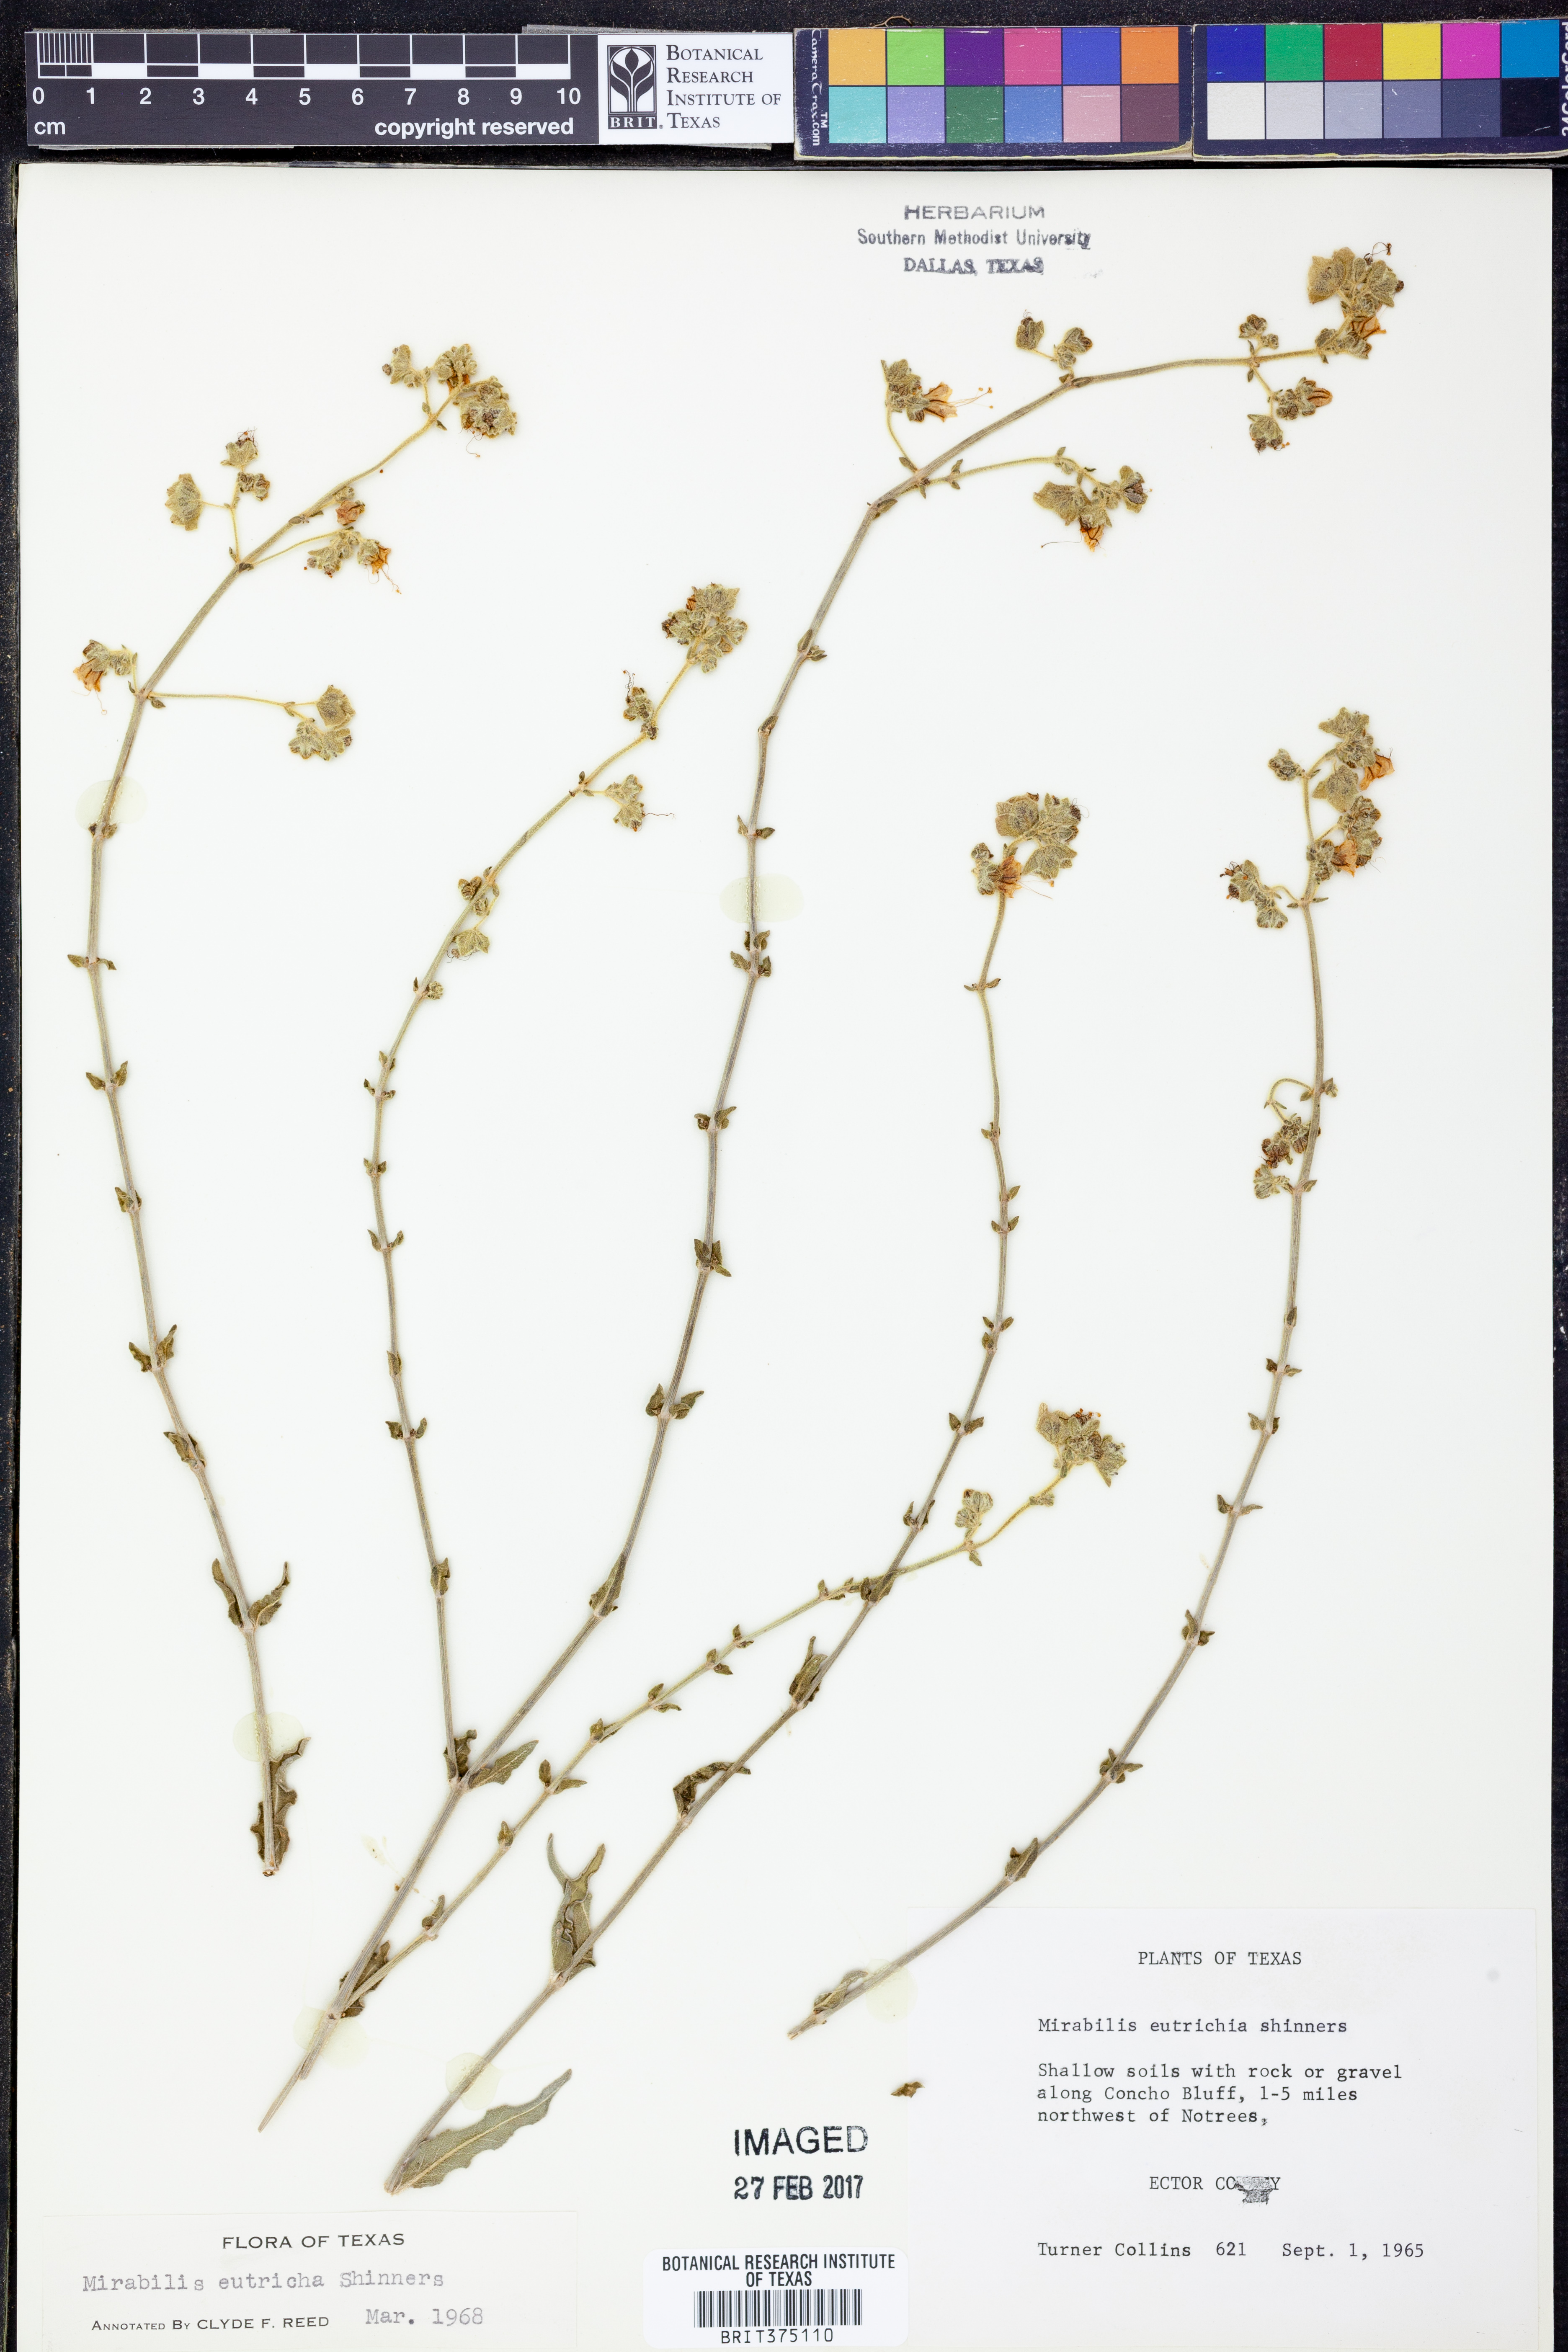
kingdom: Plantae
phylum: Tracheophyta
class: Magnoliopsida
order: Caryophyllales
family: Nyctaginaceae
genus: Mirabilis
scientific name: Mirabilis albida
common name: Hairy four-o'clock
